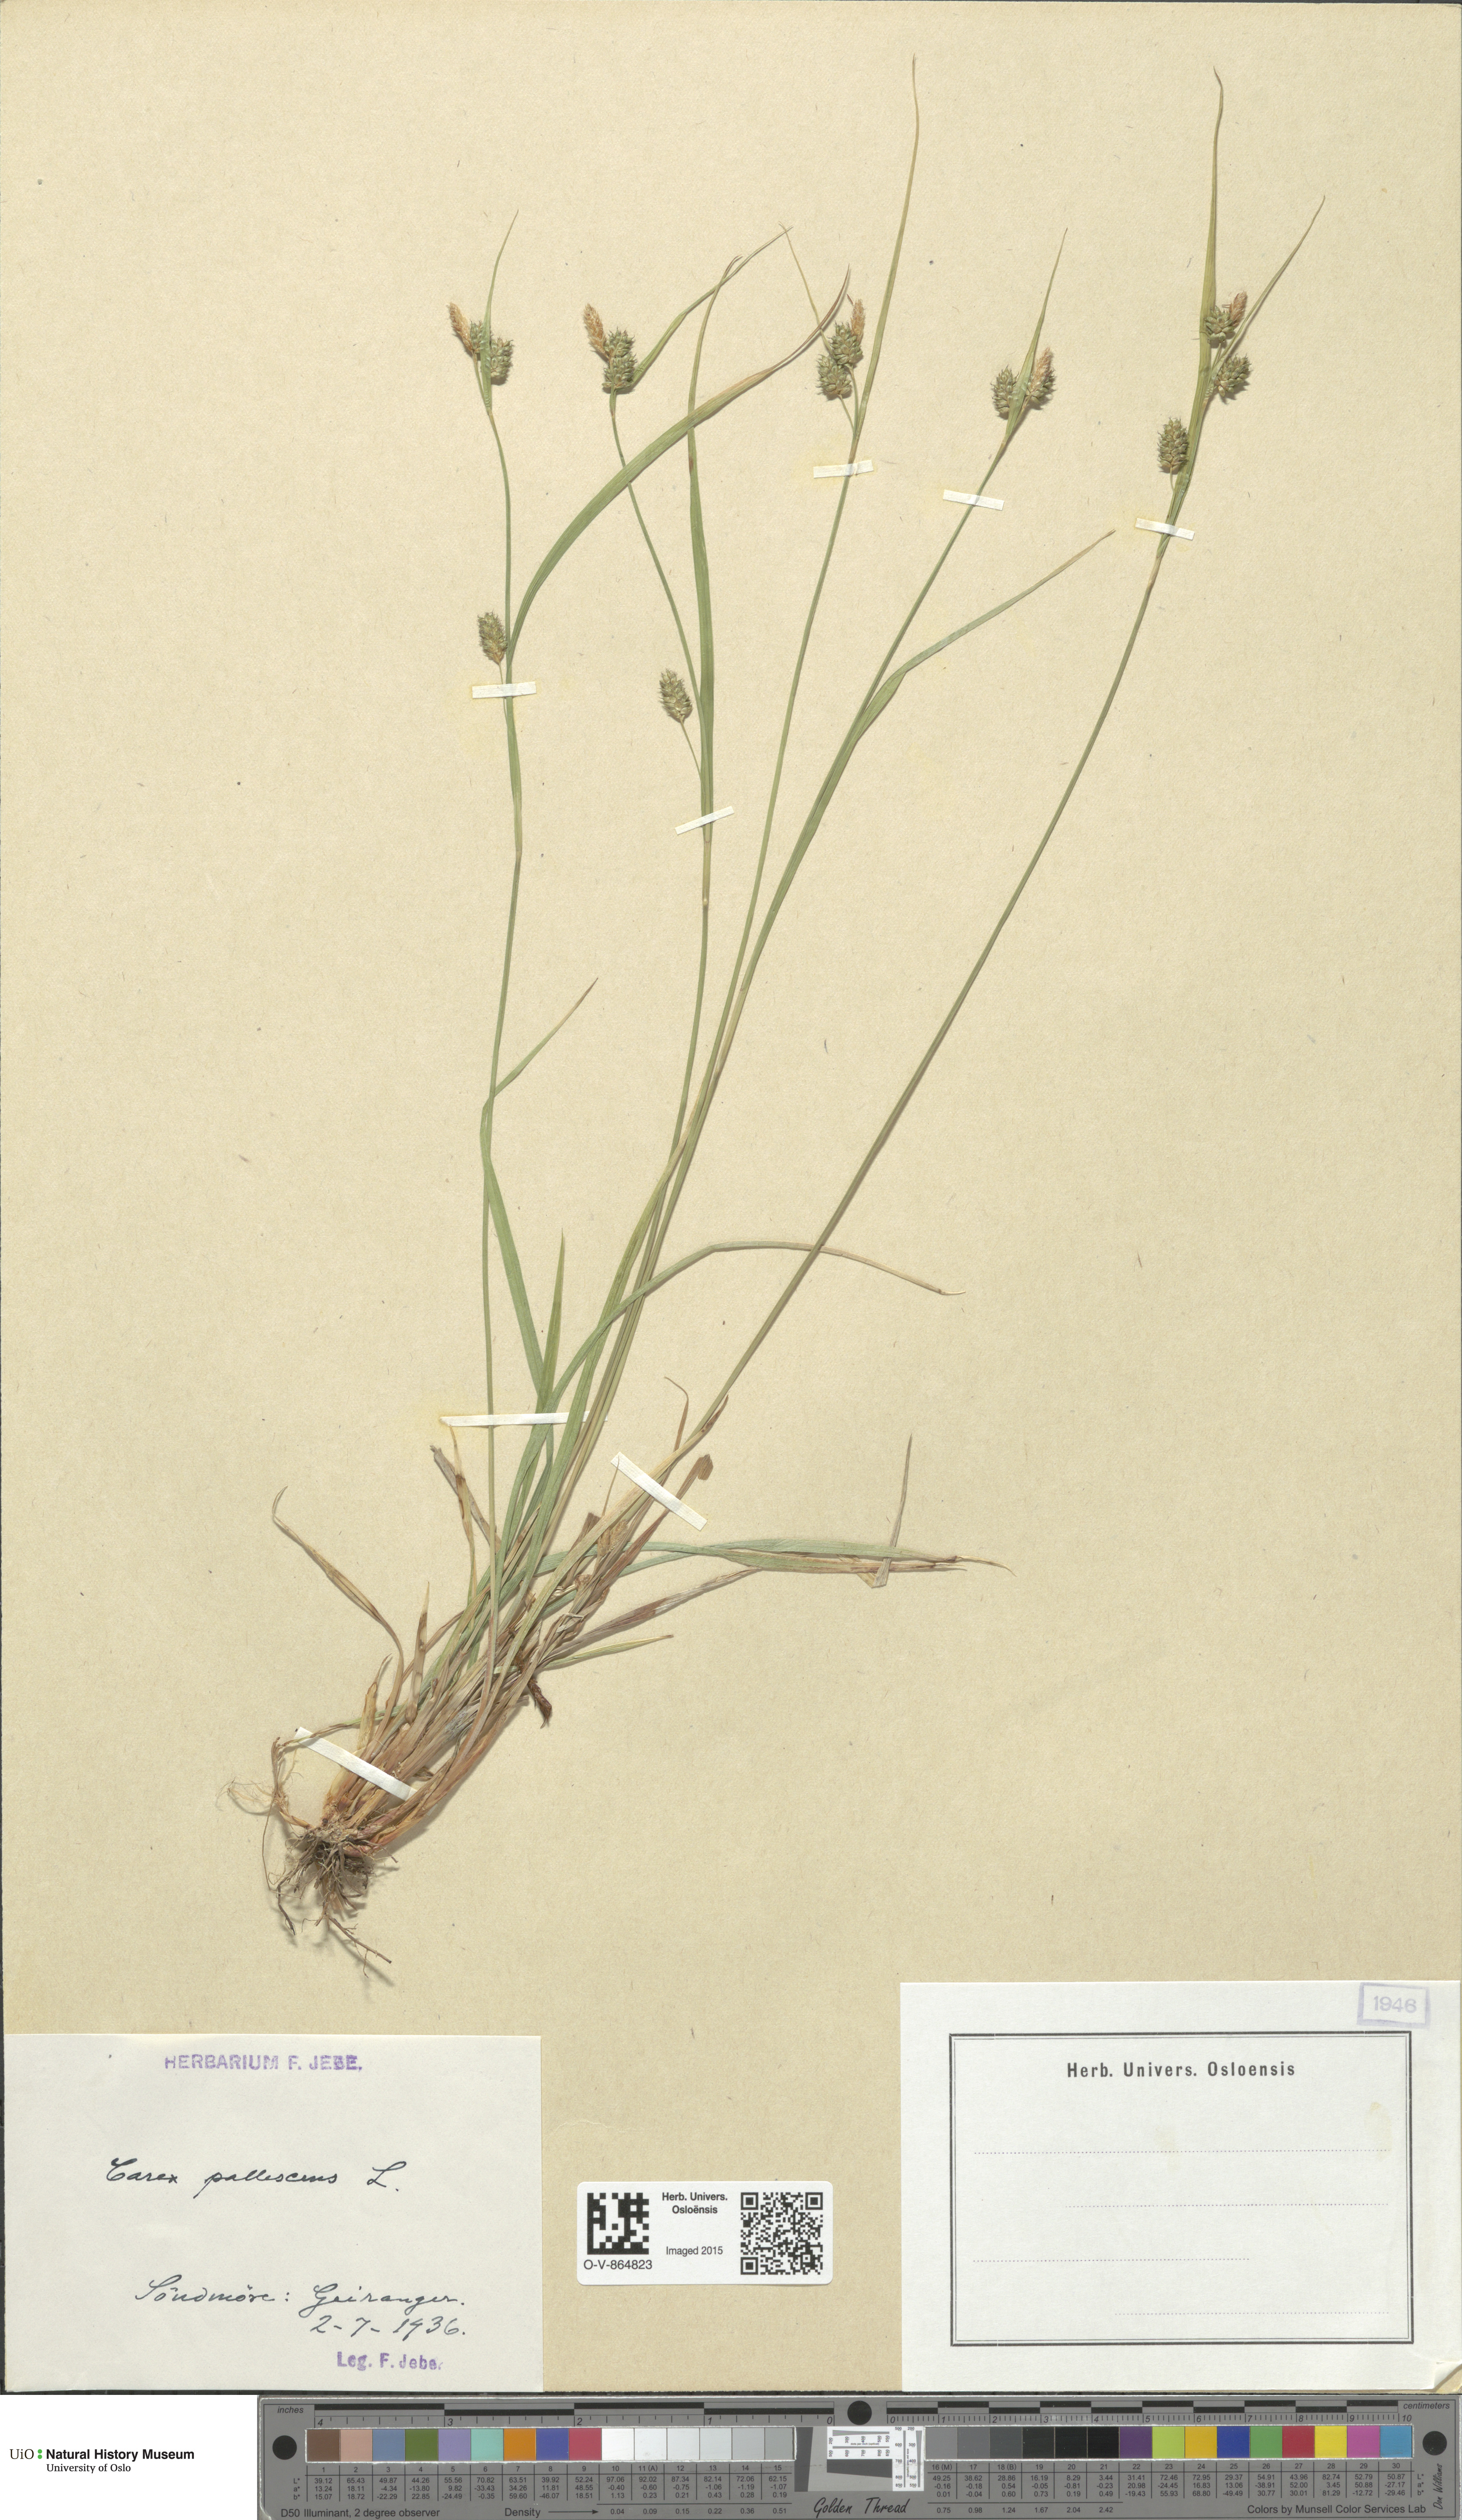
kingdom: Plantae
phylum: Tracheophyta
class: Liliopsida
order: Poales
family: Cyperaceae
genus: Carex
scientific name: Carex pallescens
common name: Pale sedge
